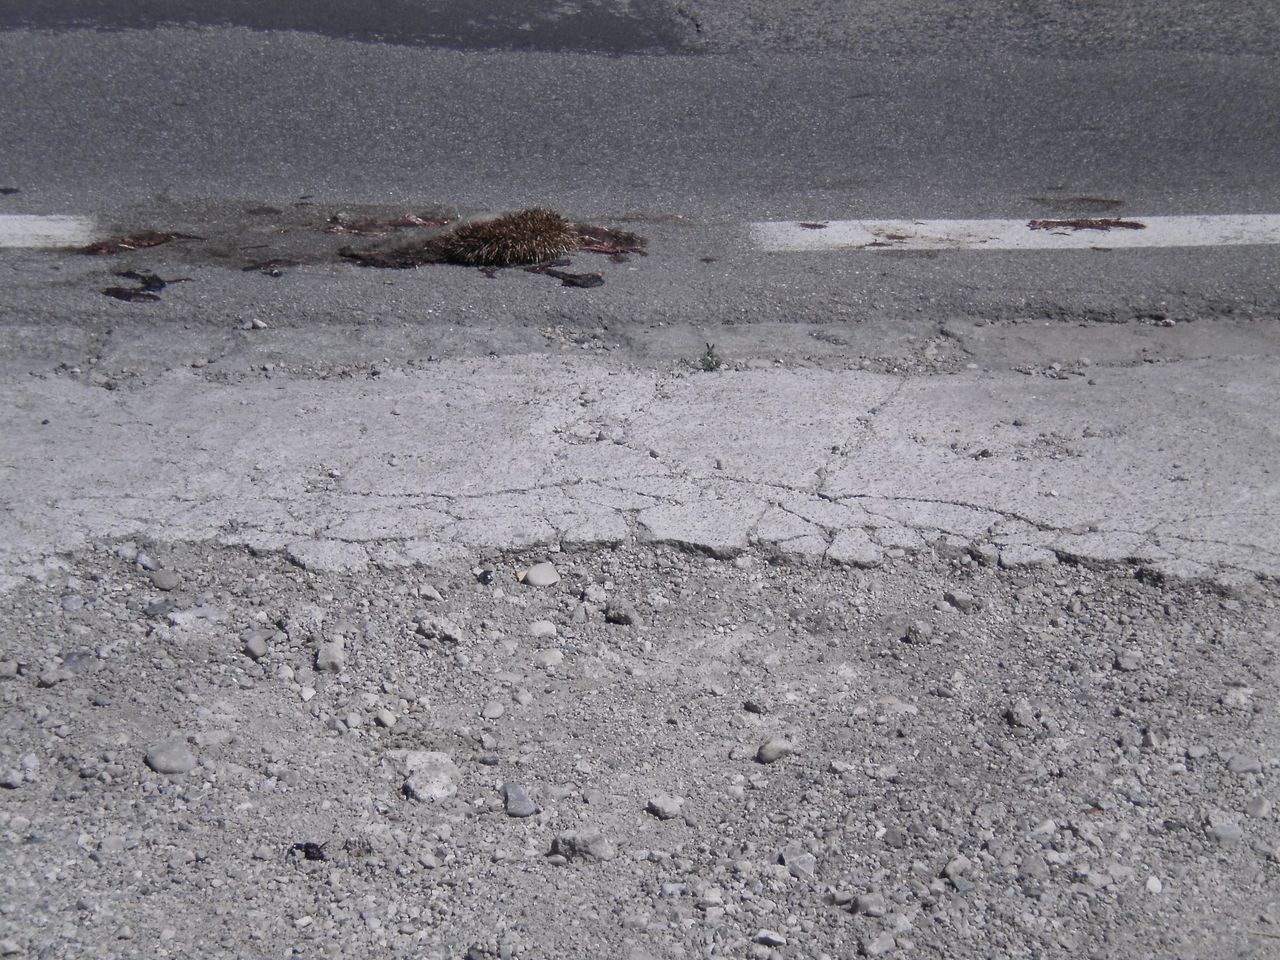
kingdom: Animalia
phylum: Chordata
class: Mammalia
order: Erinaceomorpha
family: Erinaceidae
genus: Erinaceus
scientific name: Erinaceus
